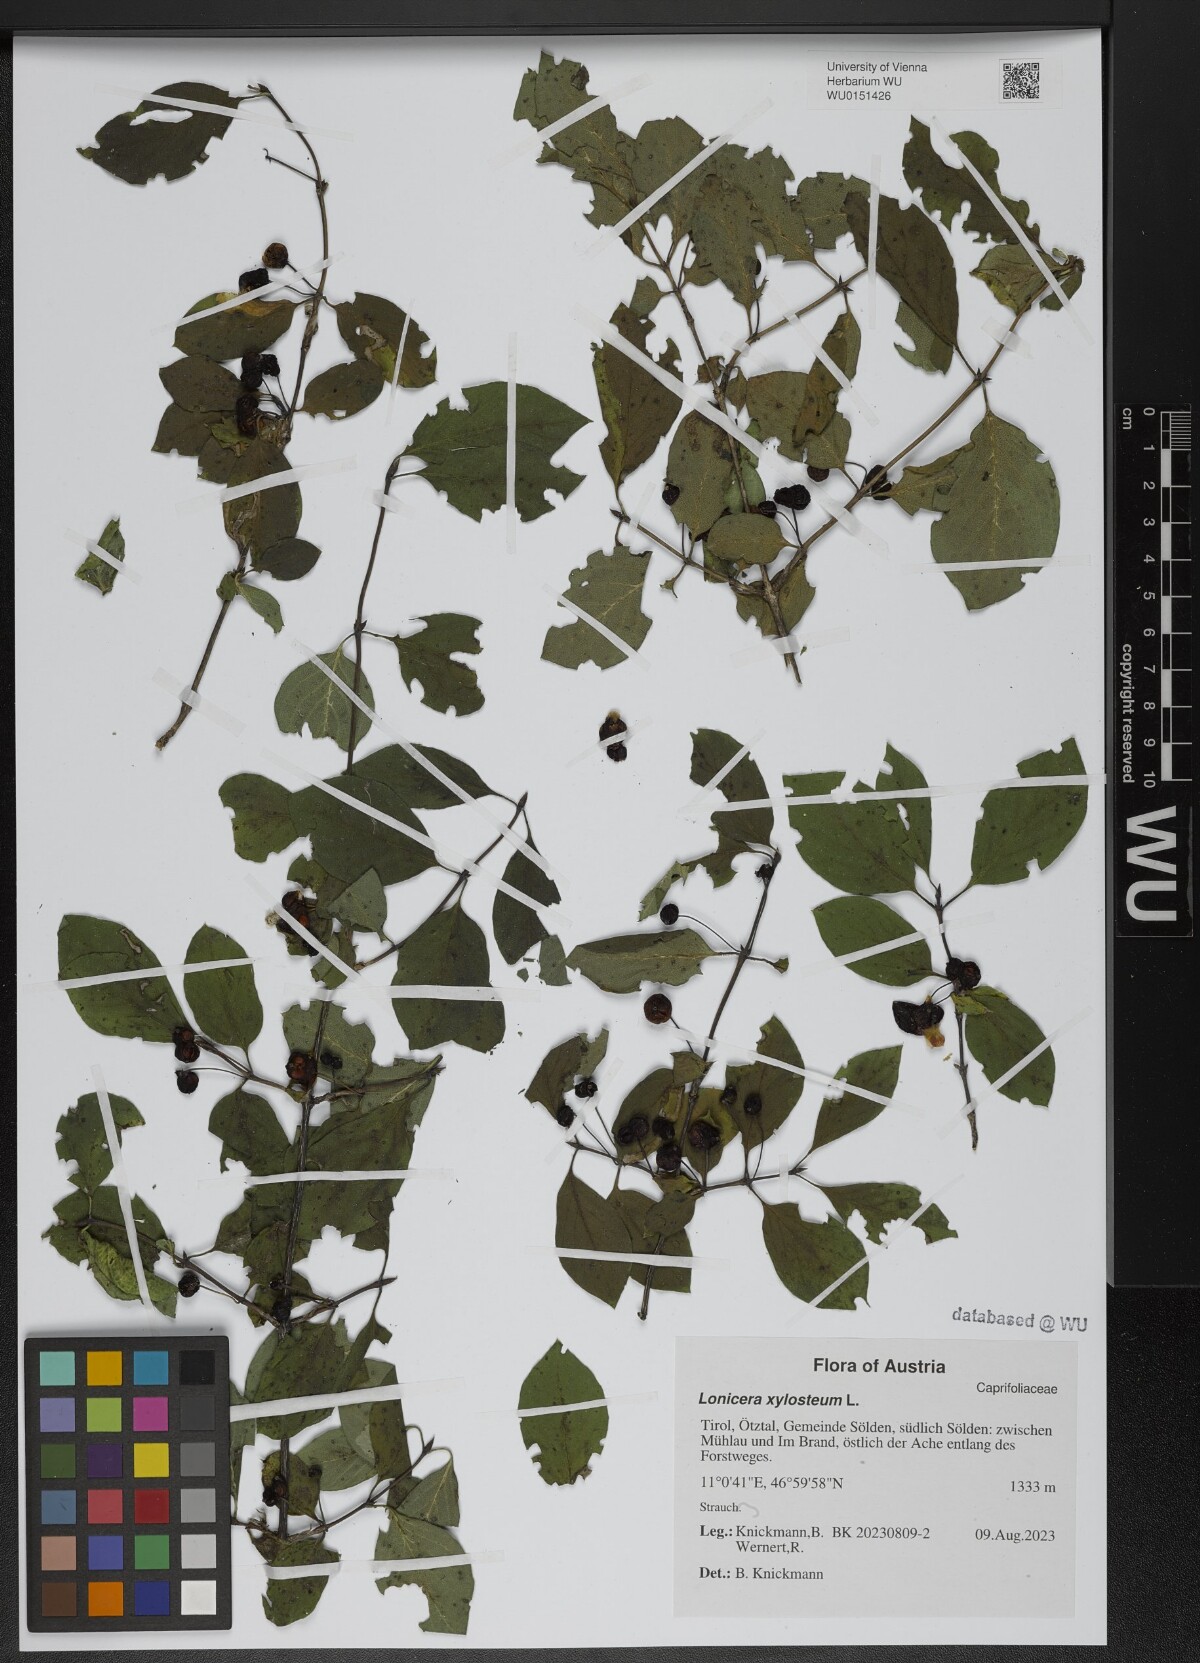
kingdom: Plantae
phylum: Tracheophyta
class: Magnoliopsida
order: Dipsacales
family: Caprifoliaceae
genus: Lonicera
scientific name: Lonicera xylosteum
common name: Fly honeysuckle
